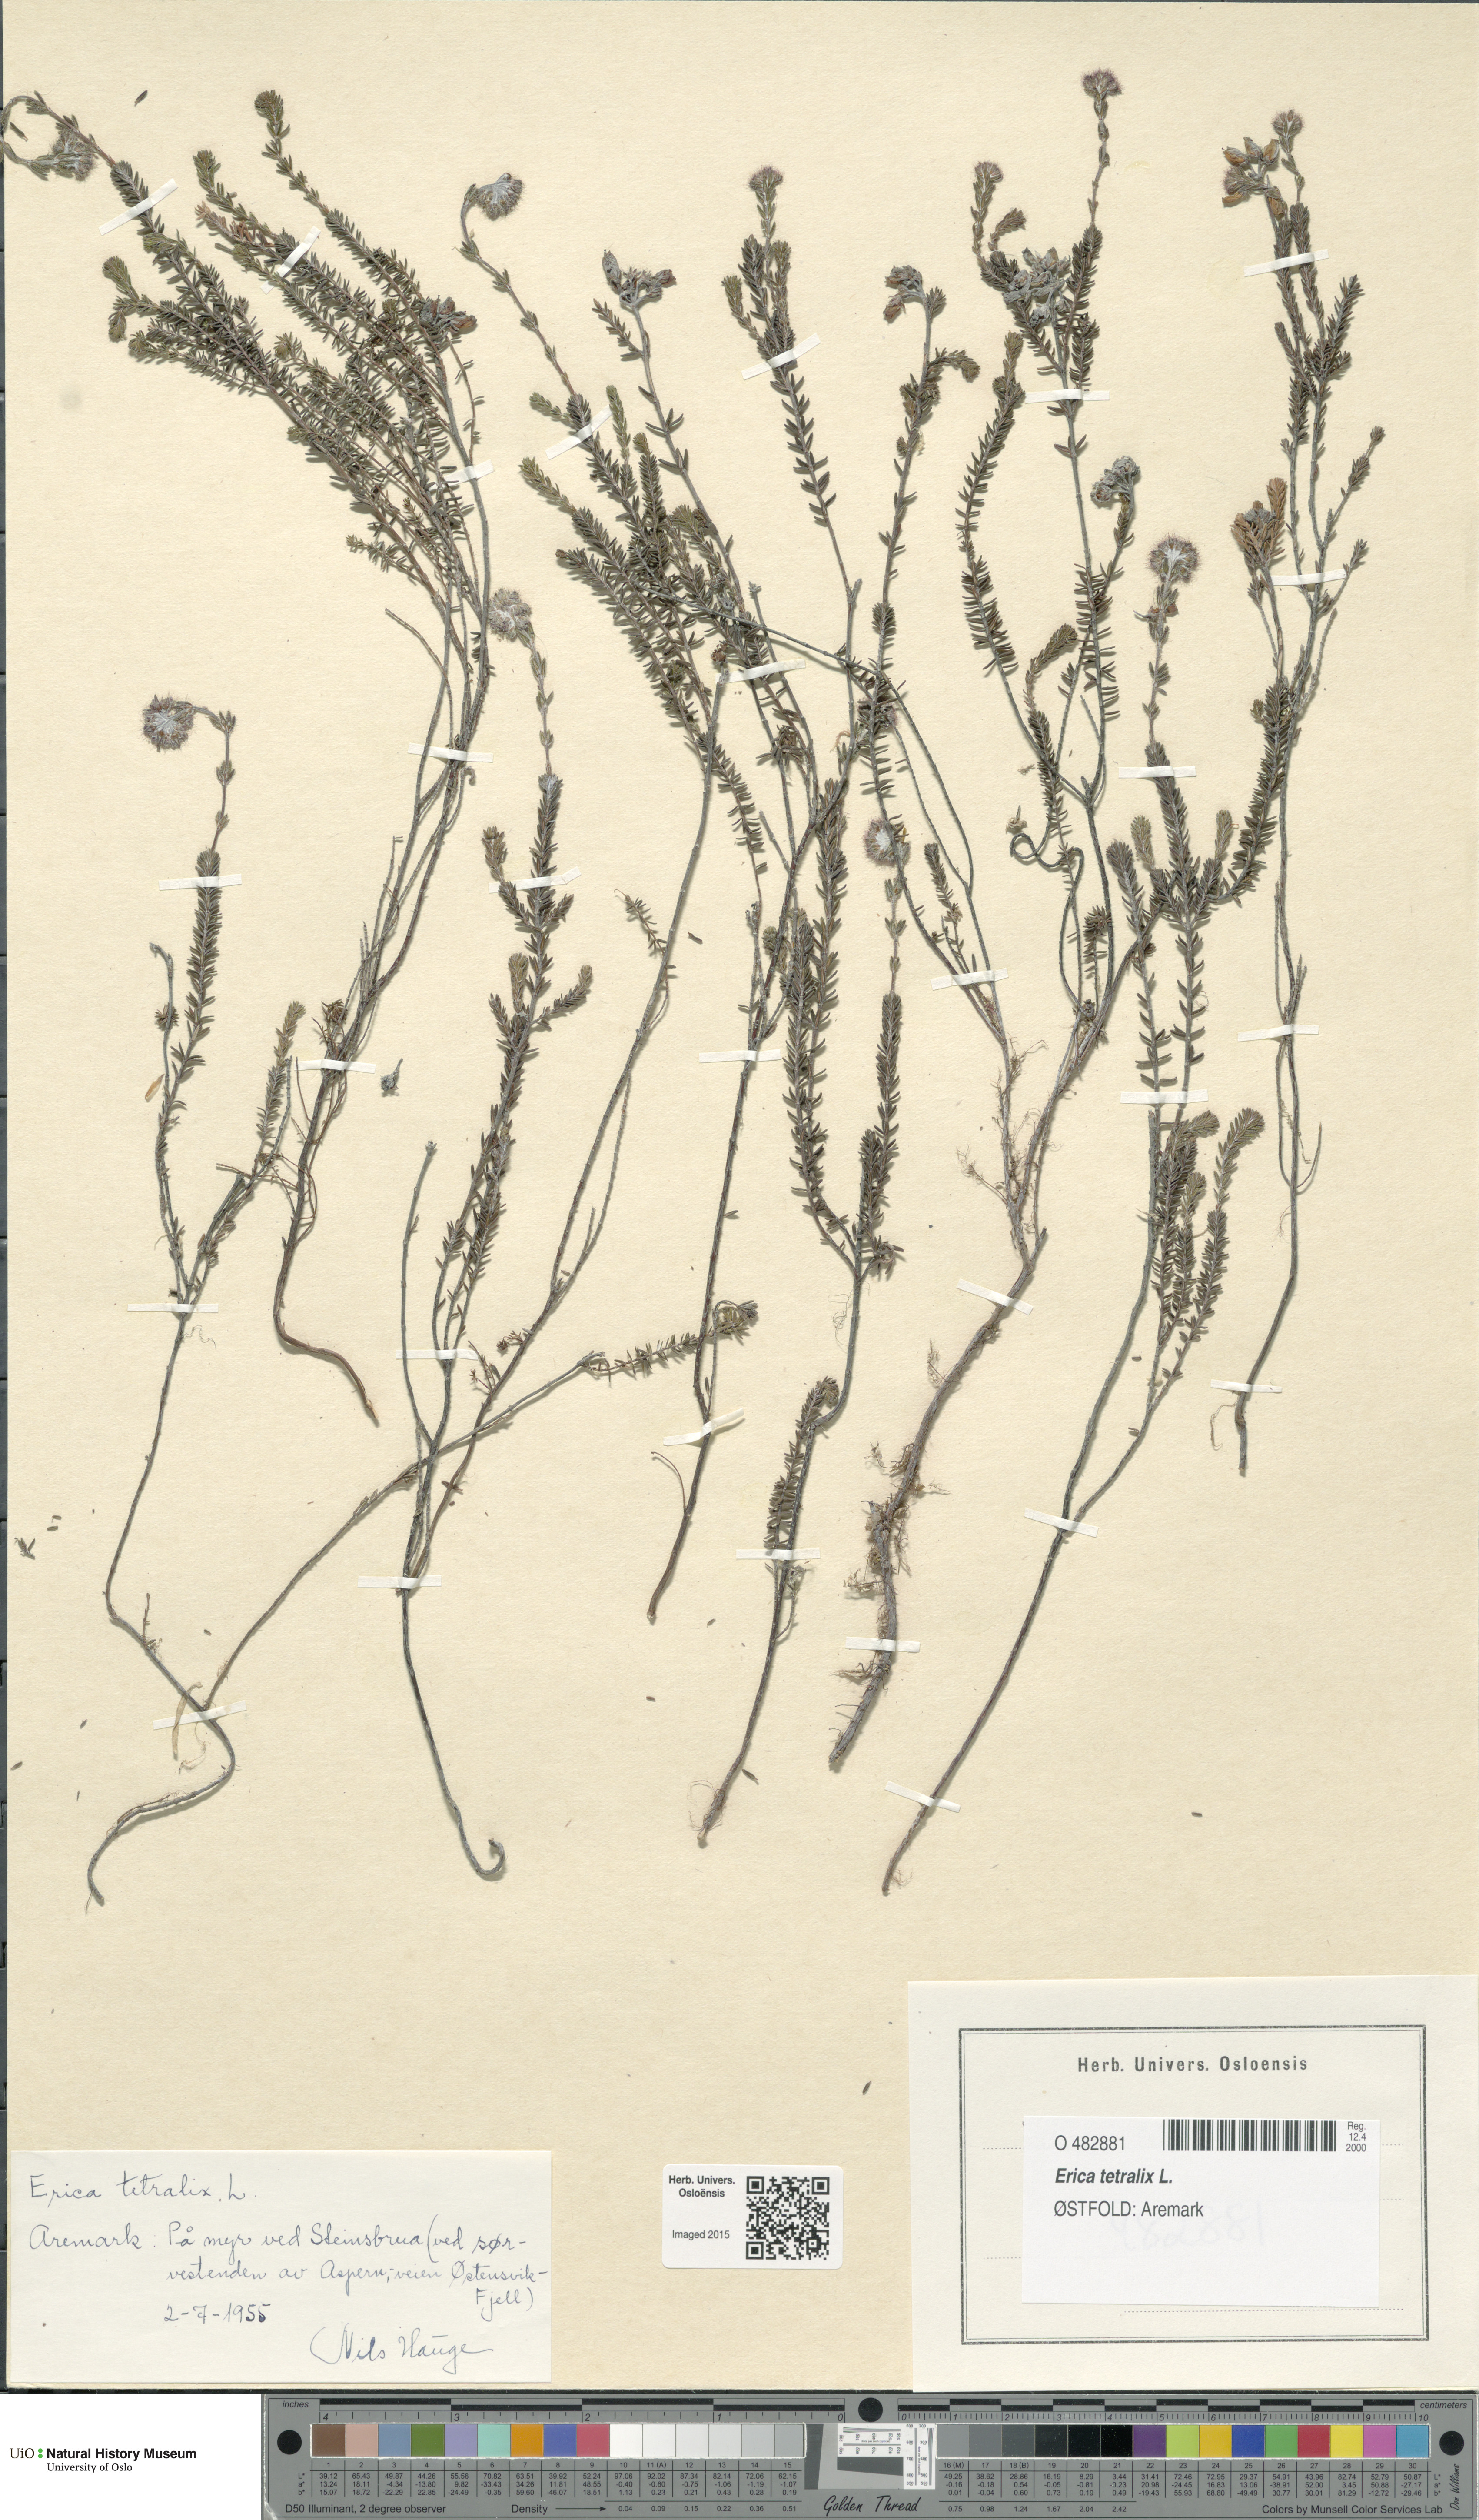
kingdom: Plantae
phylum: Tracheophyta
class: Magnoliopsida
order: Ericales
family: Ericaceae
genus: Erica
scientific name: Erica tetralix
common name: Cross-leaved heath
